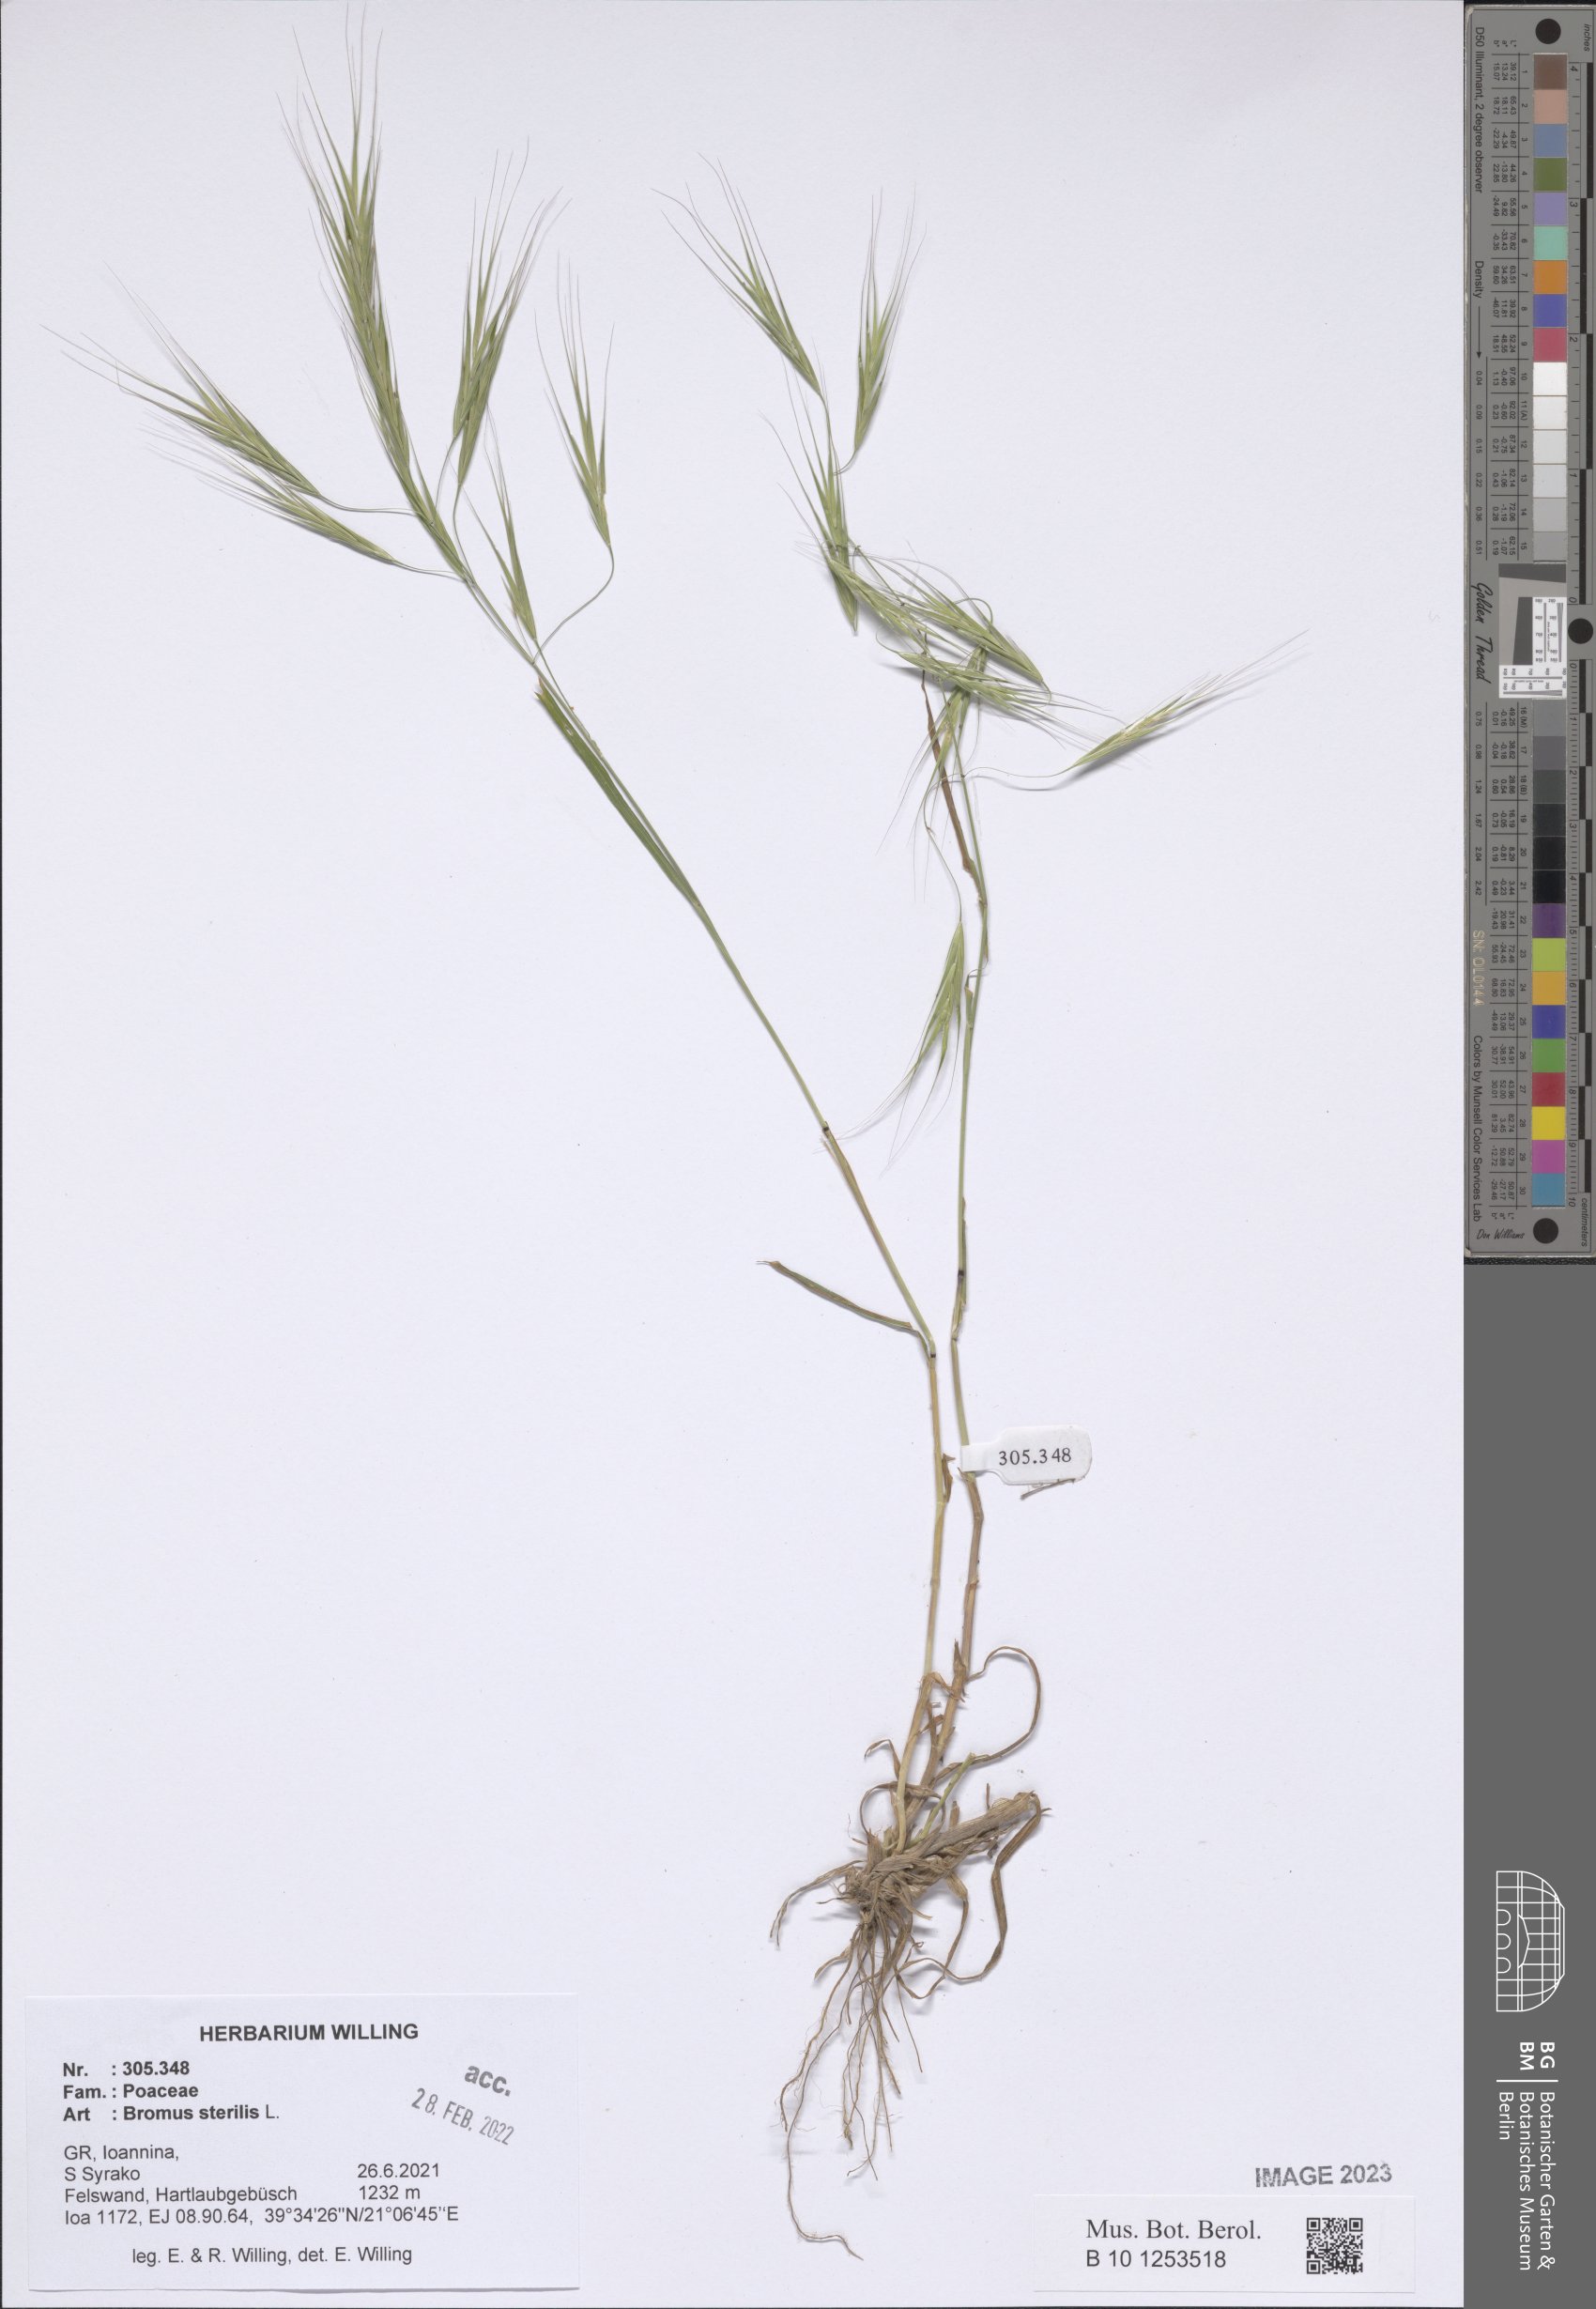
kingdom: Plantae
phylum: Tracheophyta
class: Liliopsida
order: Poales
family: Poaceae
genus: Bromus
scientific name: Bromus sterilis
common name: Poverty brome
